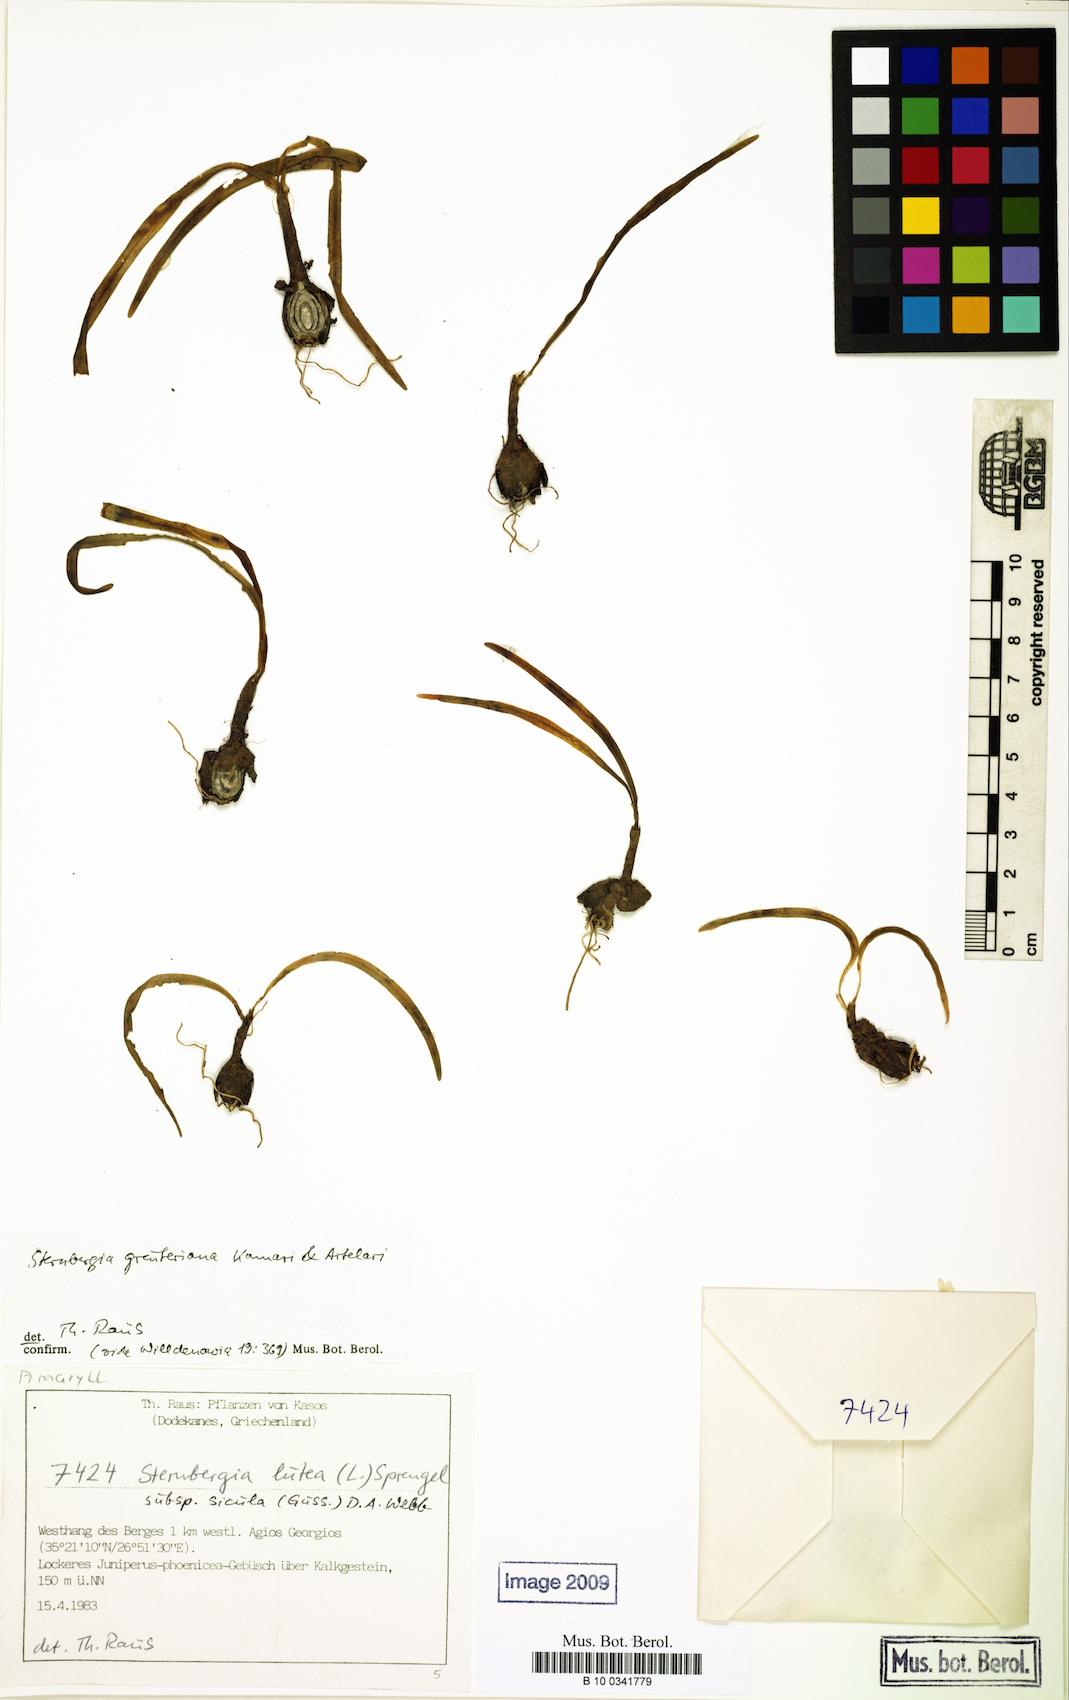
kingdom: Plantae
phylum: Tracheophyta
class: Liliopsida
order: Asparagales
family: Amaryllidaceae
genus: Sternbergia
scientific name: Sternbergia lutea
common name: Winter daffodil
